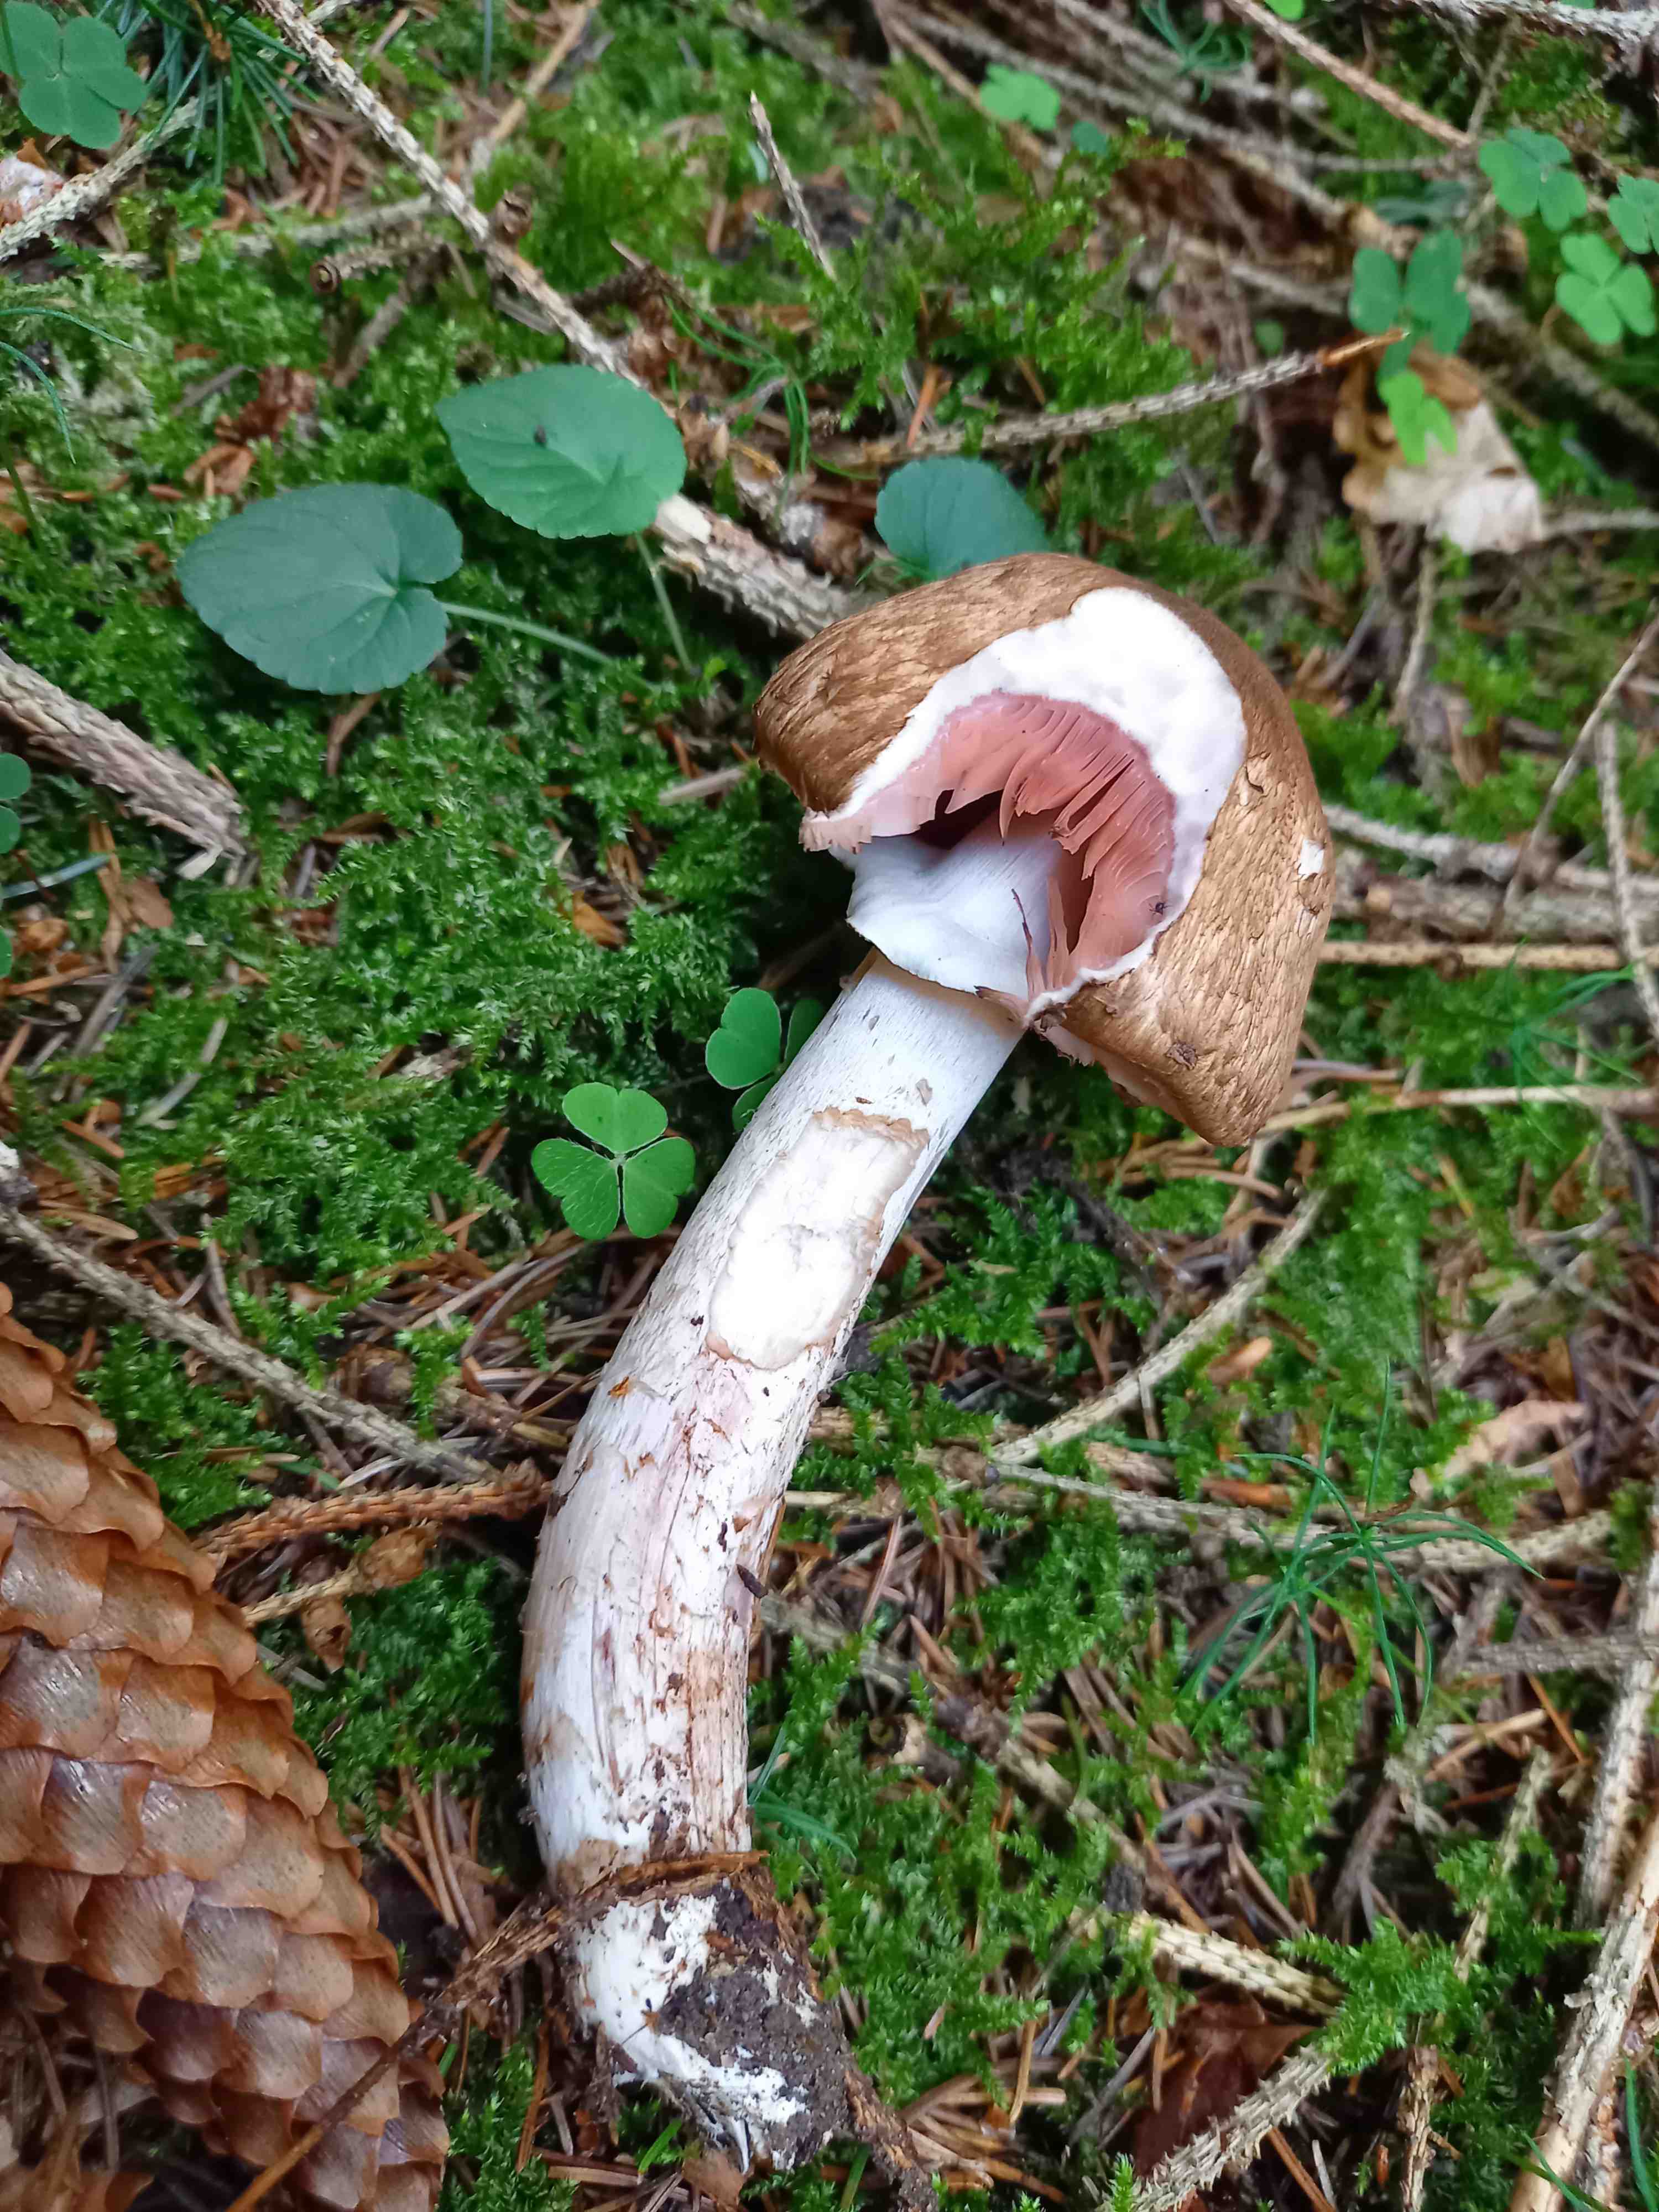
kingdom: Fungi
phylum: Basidiomycota
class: Agaricomycetes
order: Agaricales
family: Agaricaceae
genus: Agaricus
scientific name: Agaricus
